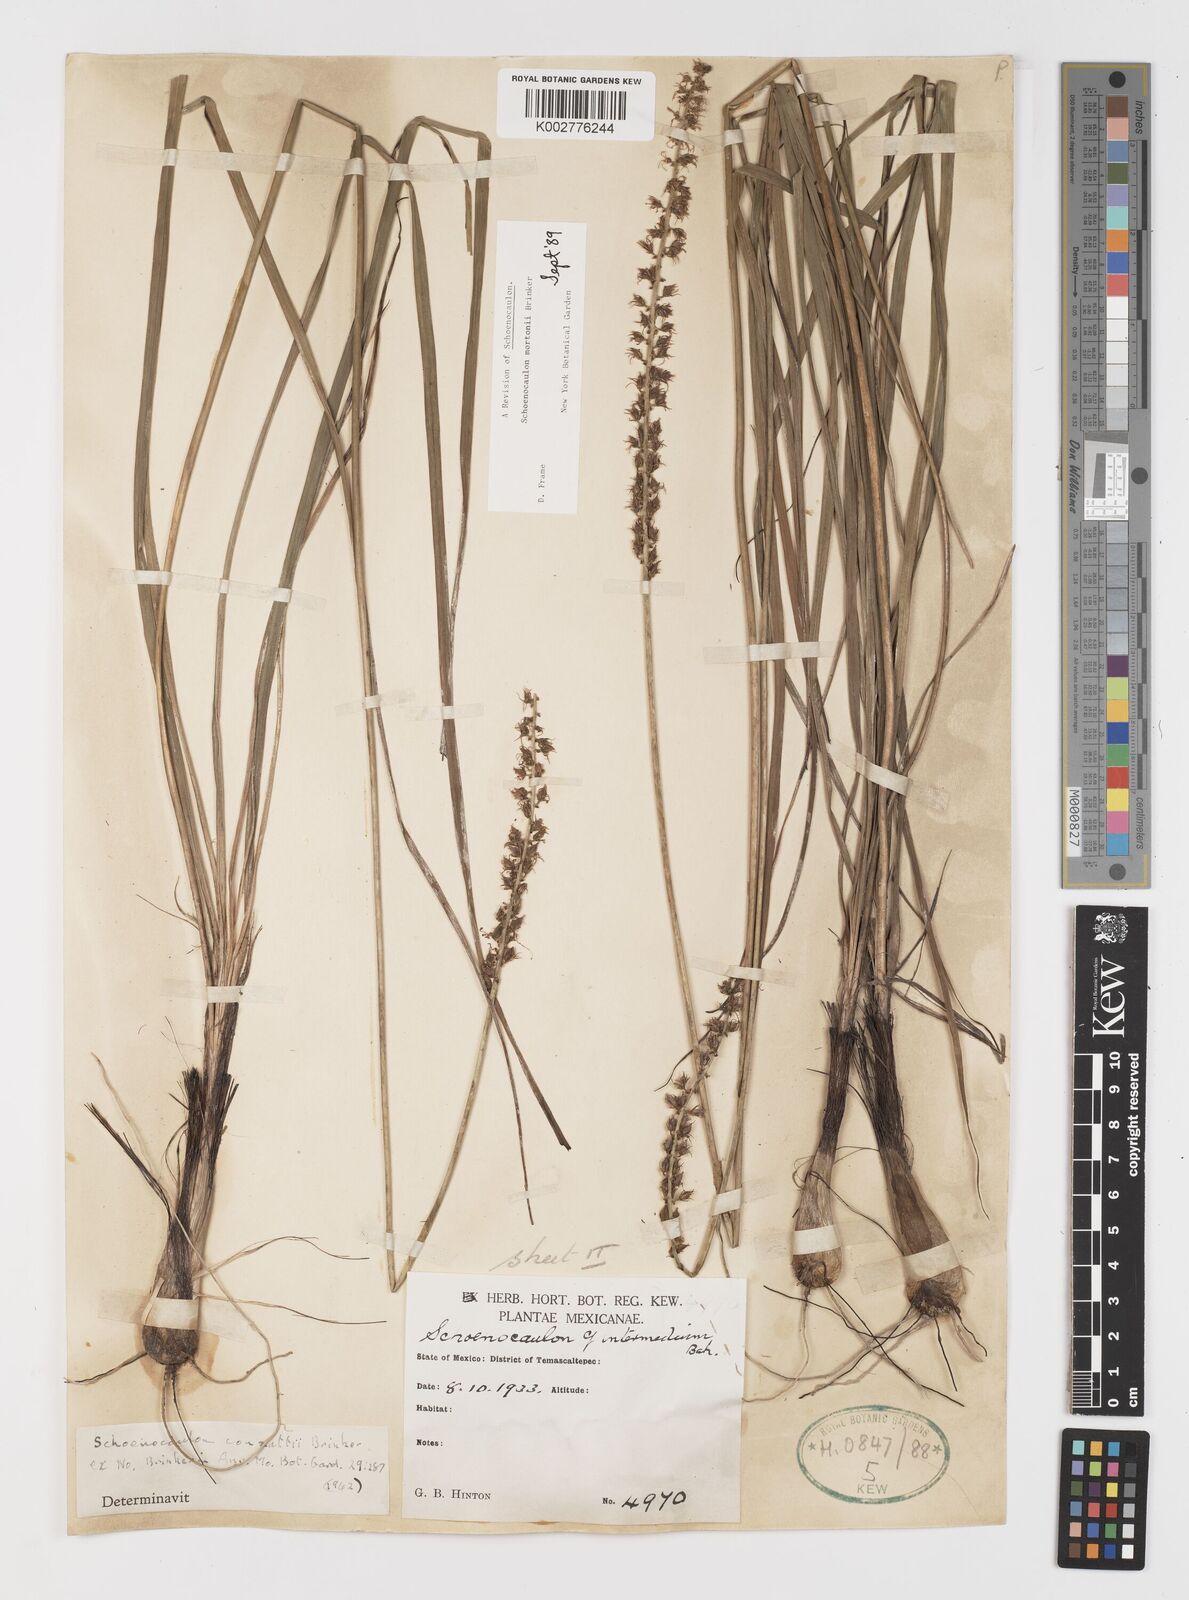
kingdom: Plantae
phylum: Tracheophyta
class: Liliopsida
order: Liliales
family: Melanthiaceae
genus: Schoenocaulon
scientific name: Schoenocaulon mortonii
